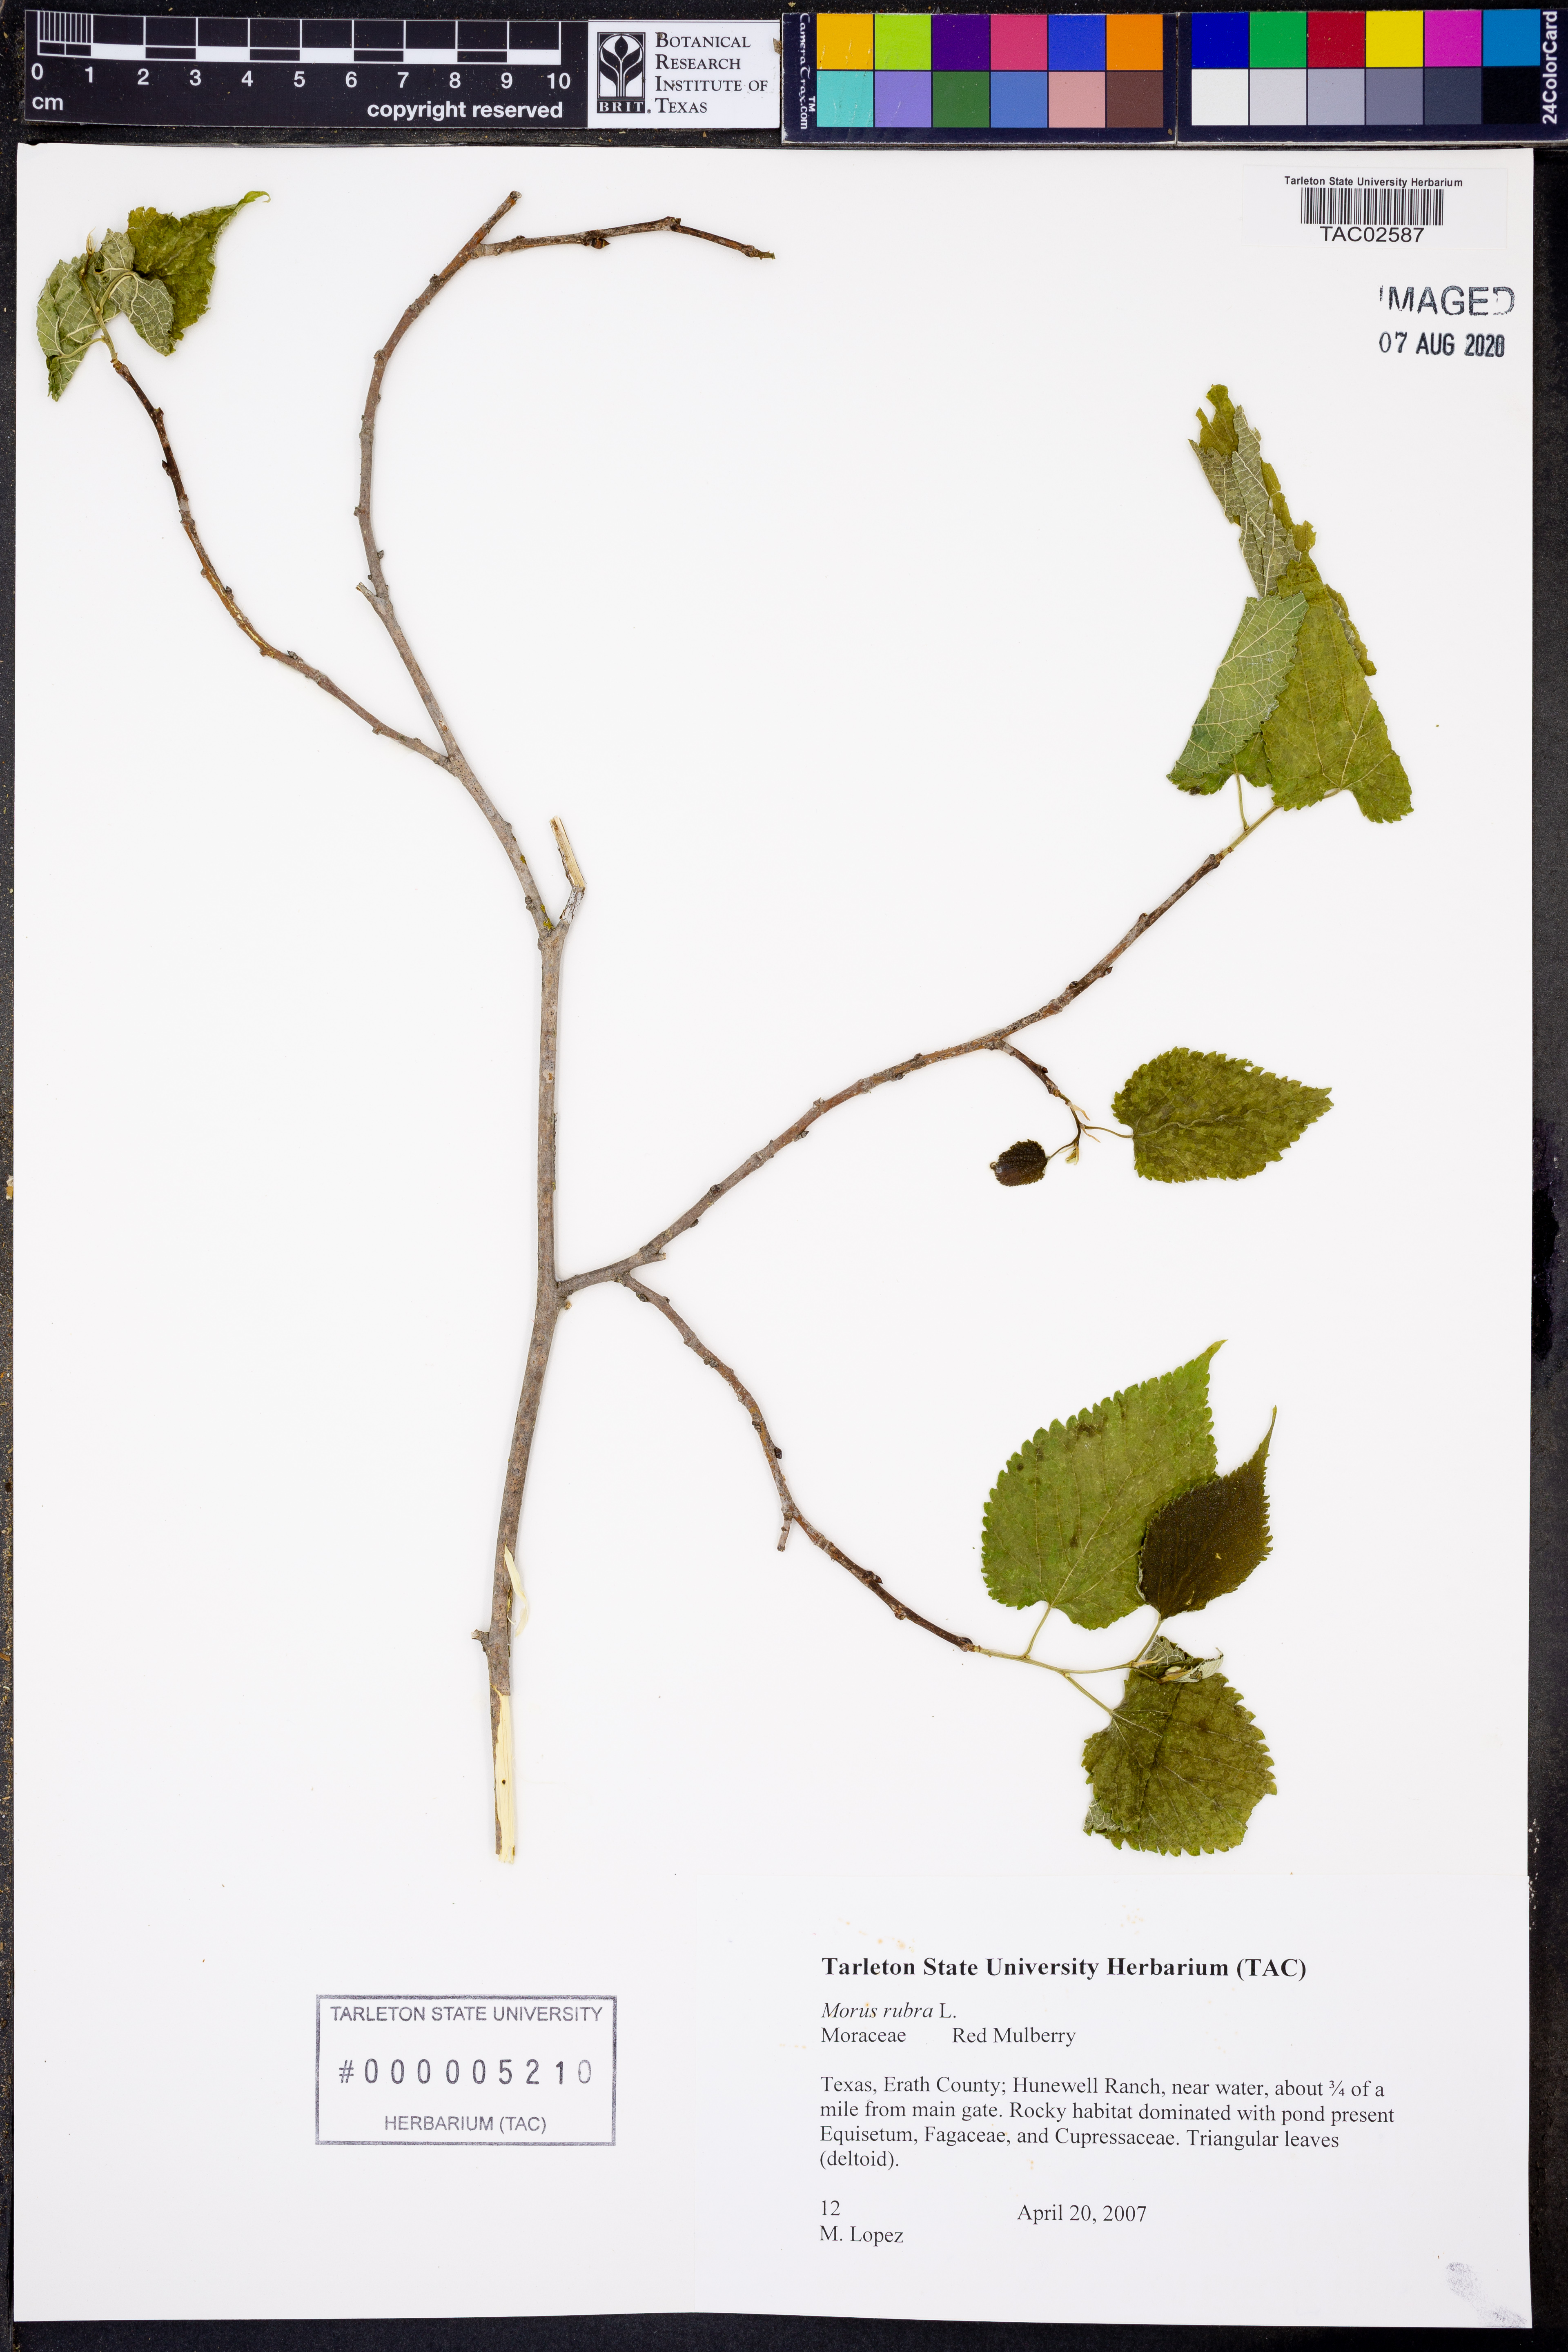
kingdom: Plantae
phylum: Tracheophyta
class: Magnoliopsida
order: Rosales
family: Moraceae
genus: Morus
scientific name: Morus rubra
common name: Red mulberry
